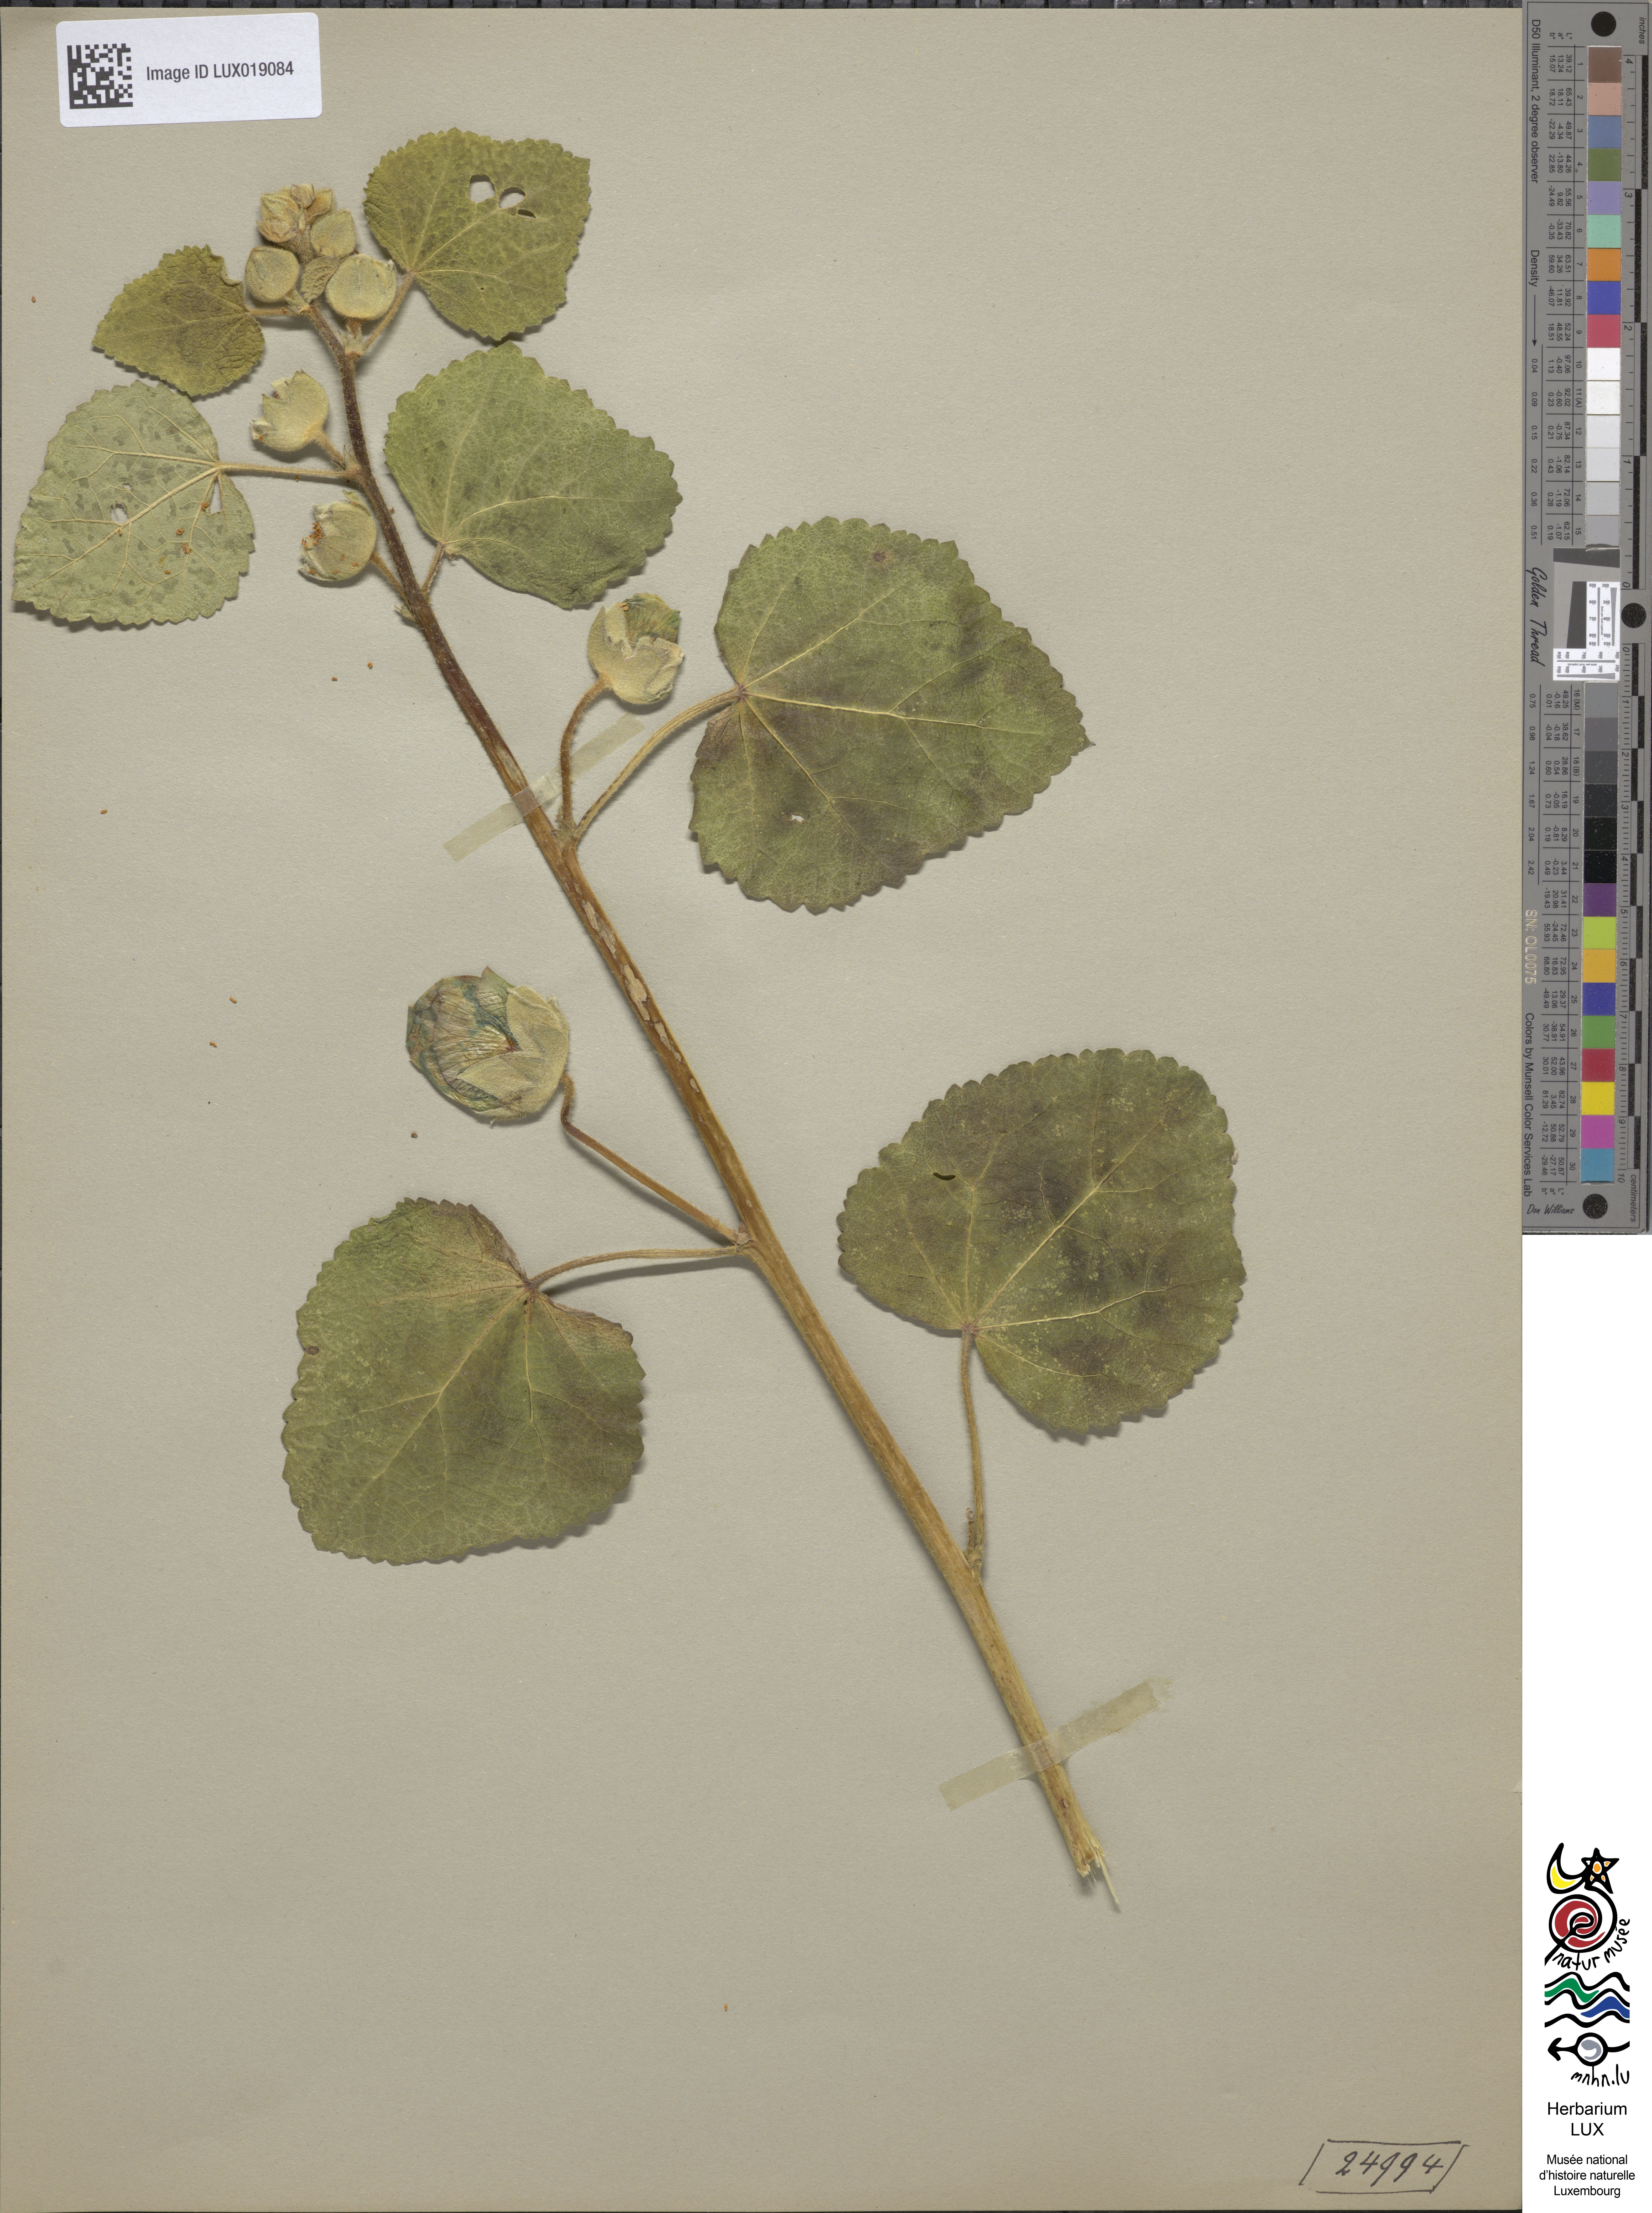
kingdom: Plantae
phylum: Tracheophyta
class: Magnoliopsida
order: Malvales
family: Malvaceae
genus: Alcea
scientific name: Alcea rosea
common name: Hollyhock
